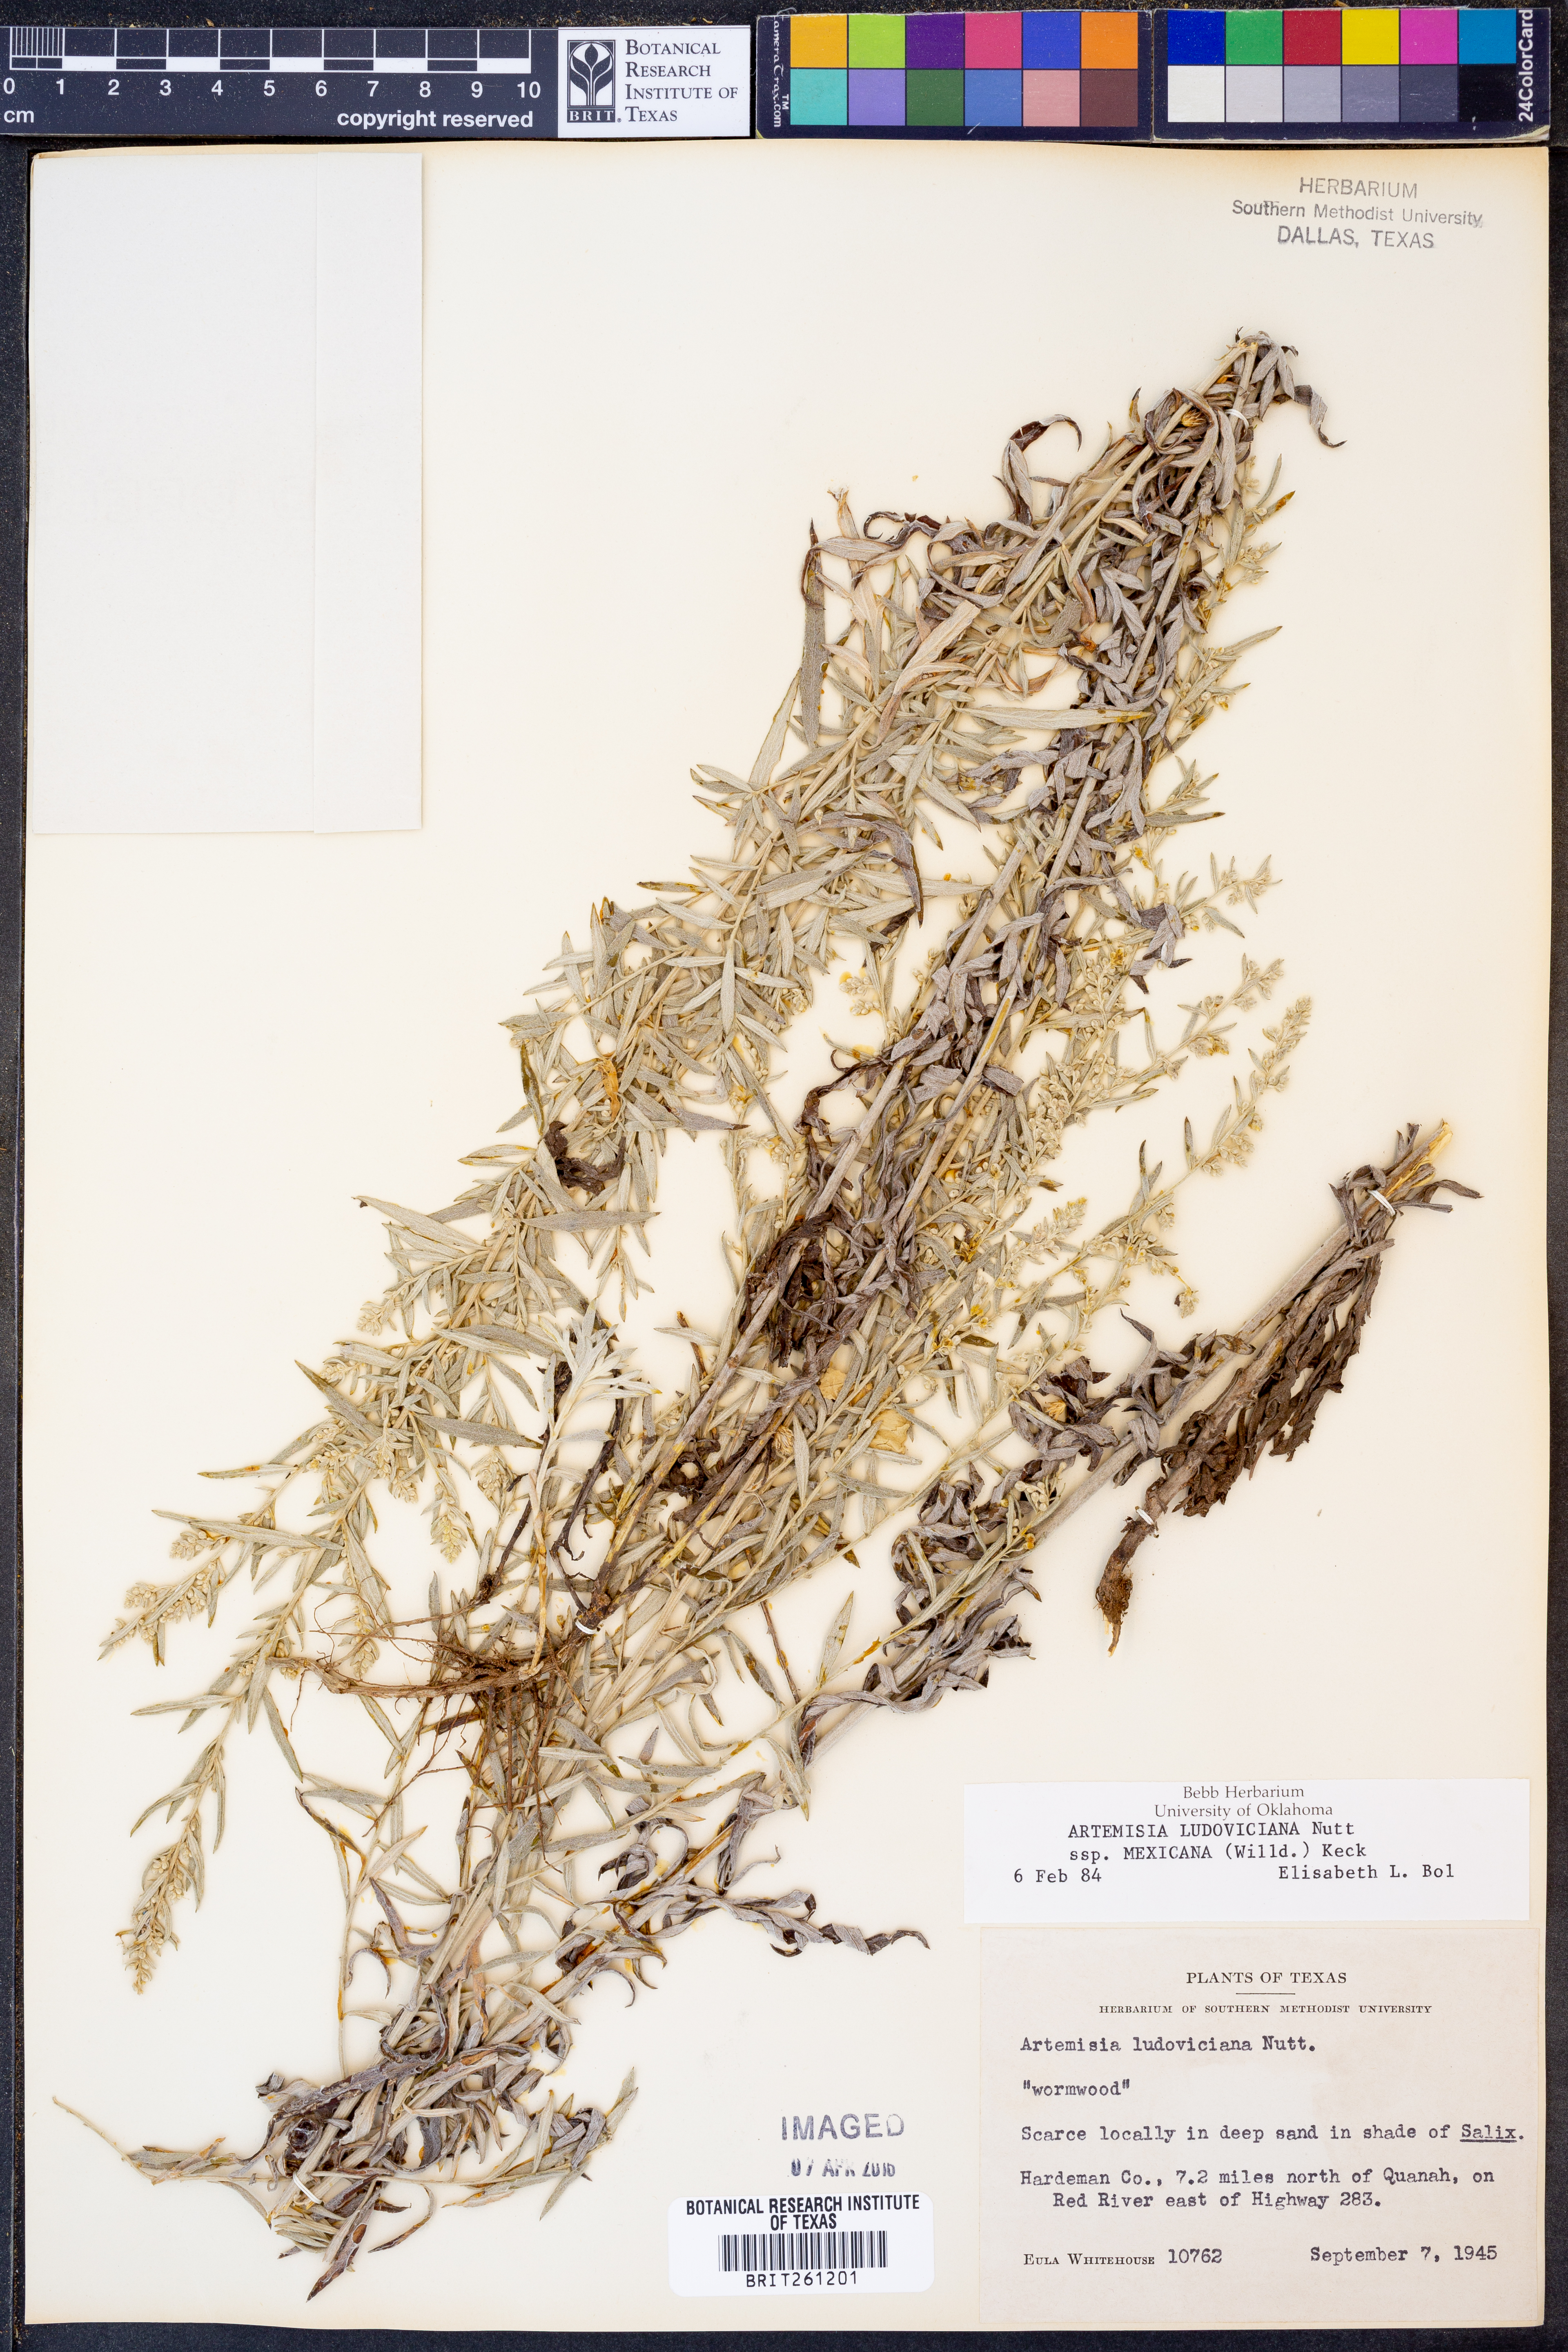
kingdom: Plantae
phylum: Tracheophyta
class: Magnoliopsida
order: Asterales
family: Asteraceae
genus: Artemisia
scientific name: Artemisia ludoviciana
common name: Western mugwort
